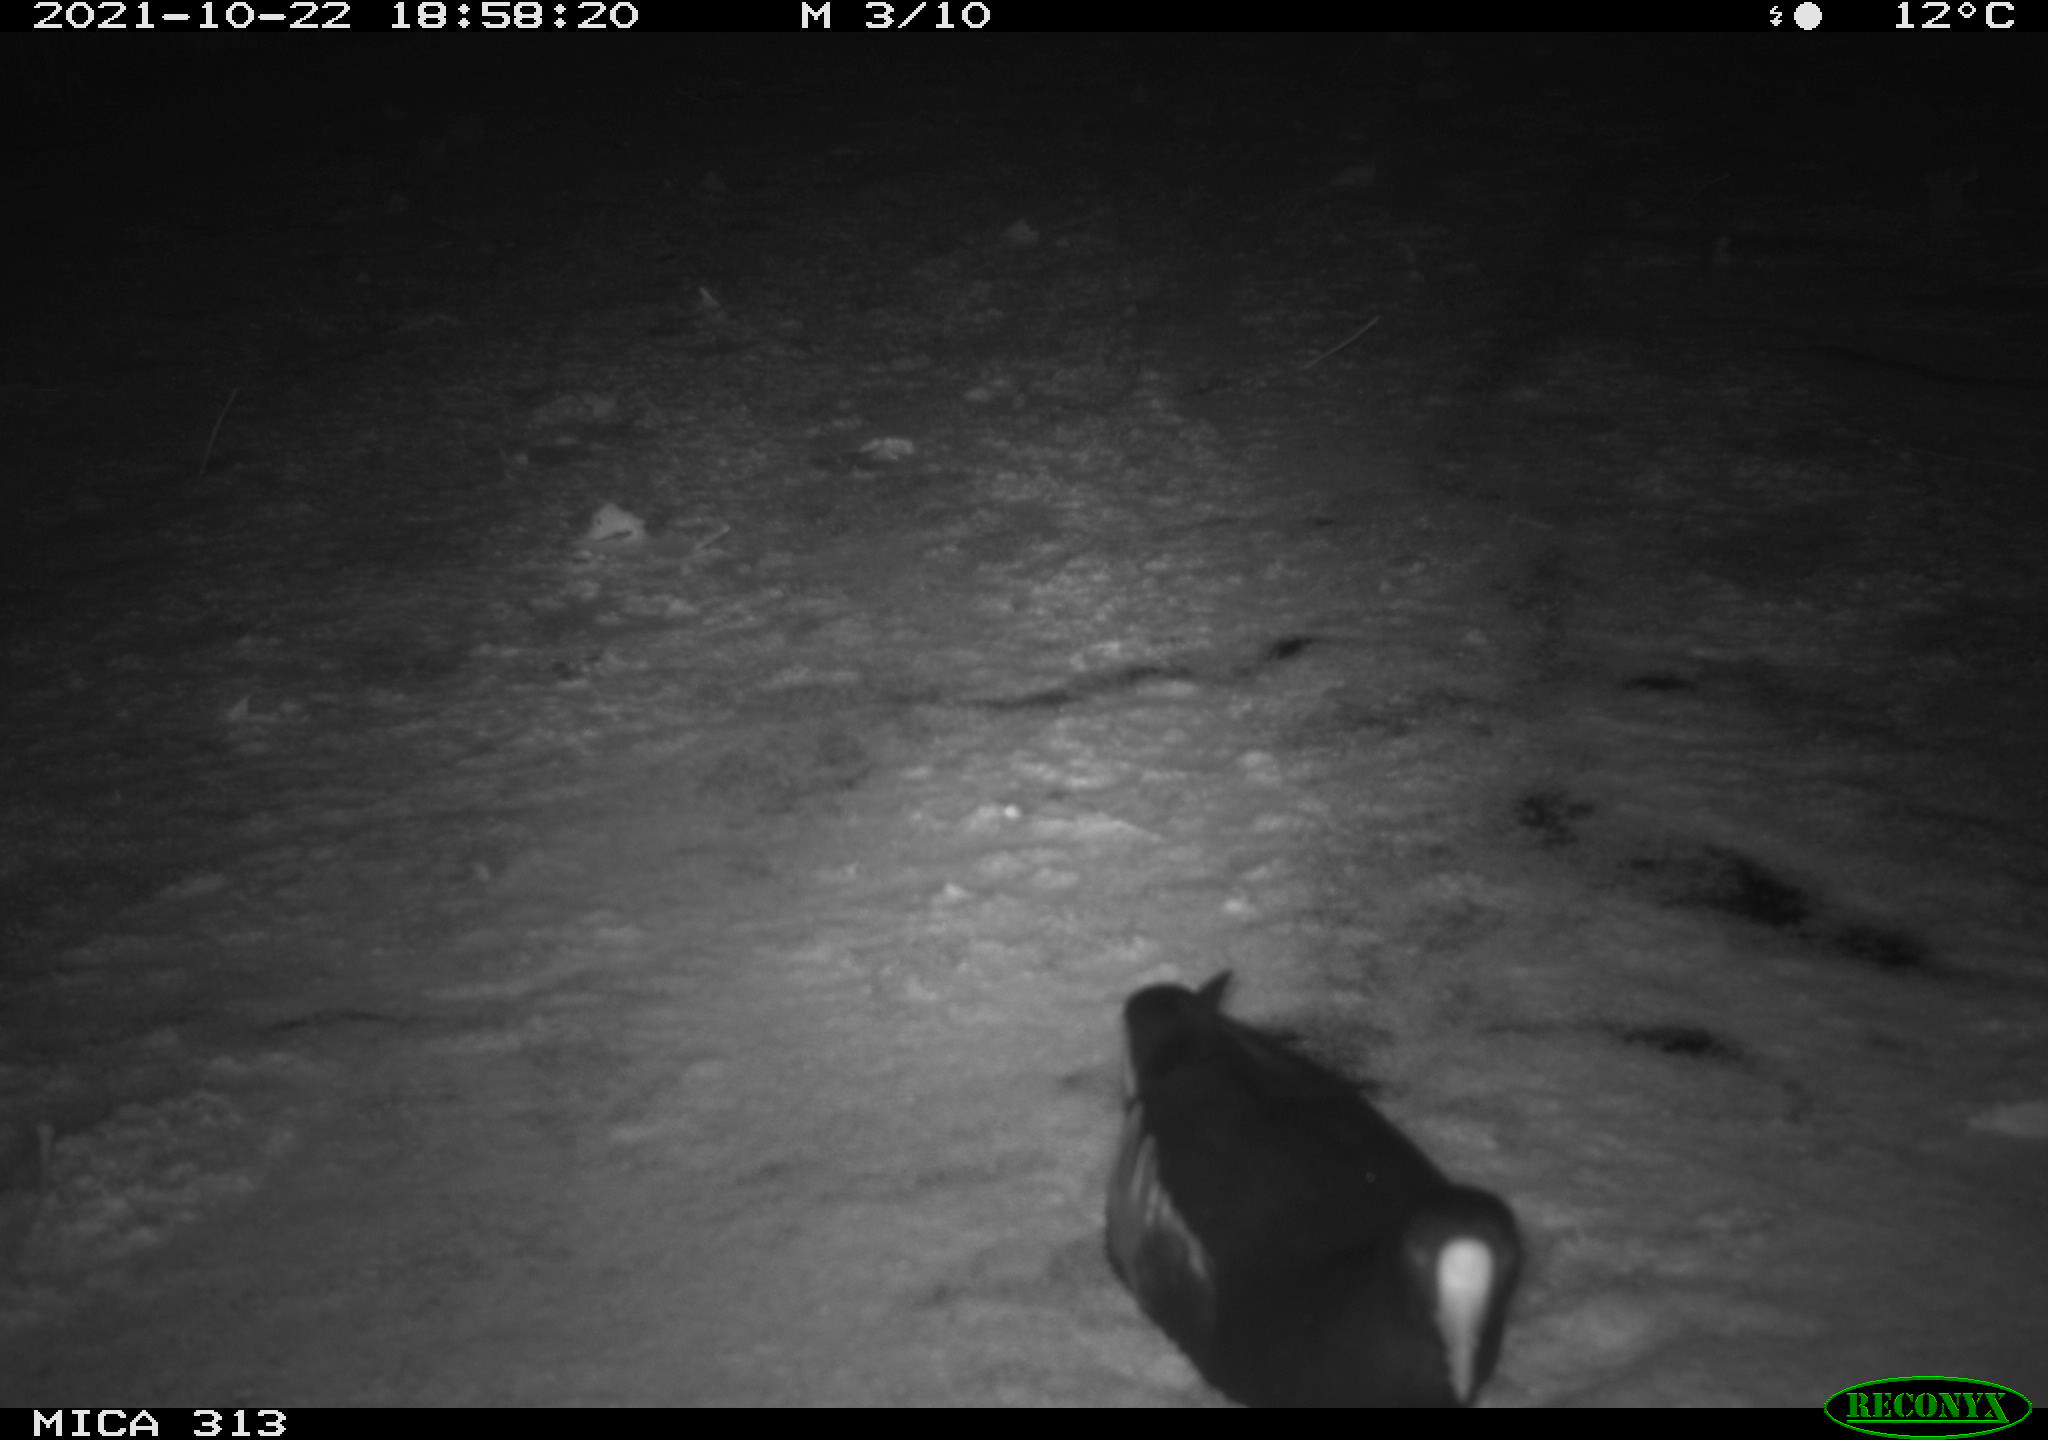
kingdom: Animalia
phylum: Chordata
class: Aves
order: Gruiformes
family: Rallidae
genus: Gallinula
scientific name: Gallinula chloropus
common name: Common moorhen
